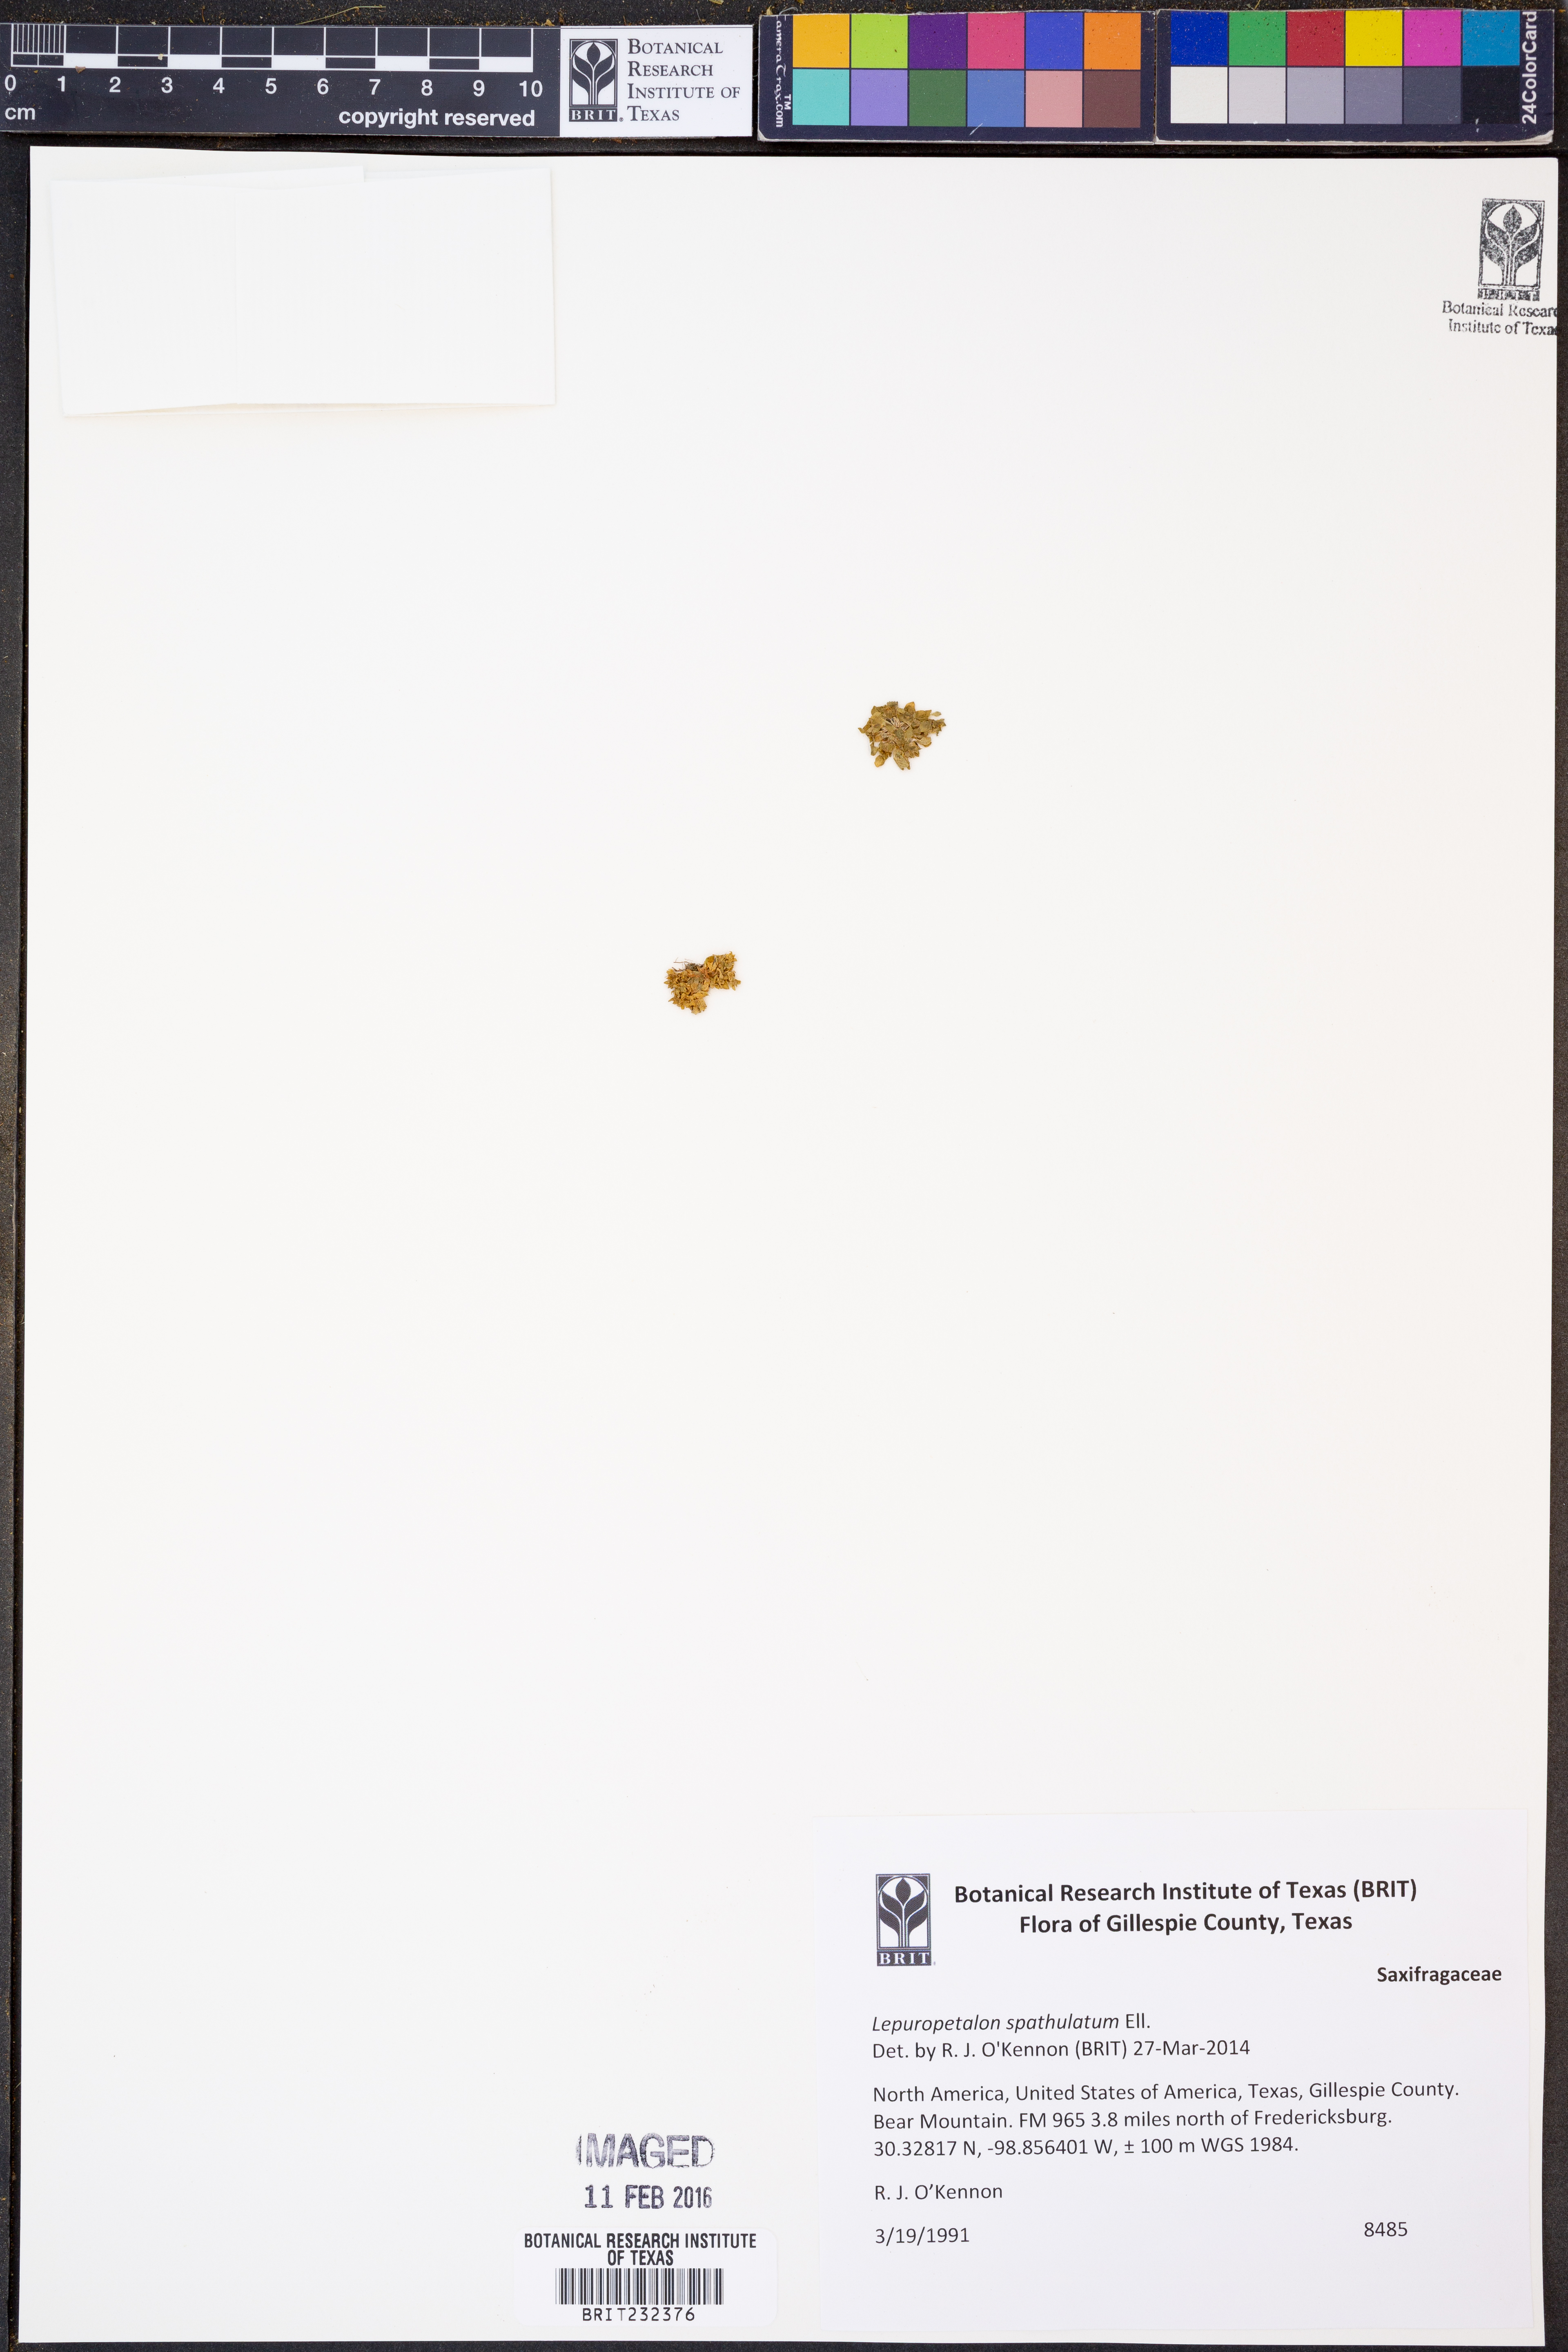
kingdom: Plantae
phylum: Tracheophyta
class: Magnoliopsida
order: Celastrales
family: Parnassiaceae
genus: Lepuropetalon
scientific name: Lepuropetalon spathulatum
